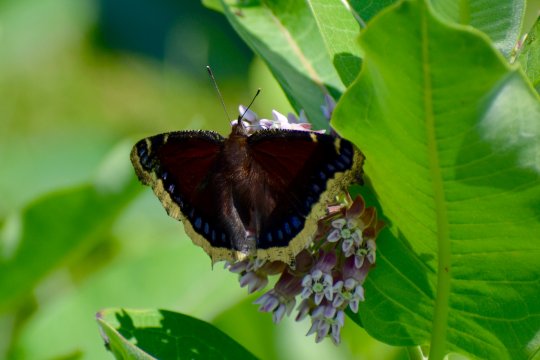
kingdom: Animalia
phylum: Arthropoda
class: Insecta
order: Lepidoptera
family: Nymphalidae
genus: Nymphalis
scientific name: Nymphalis antiopa
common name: Mourning Cloak
